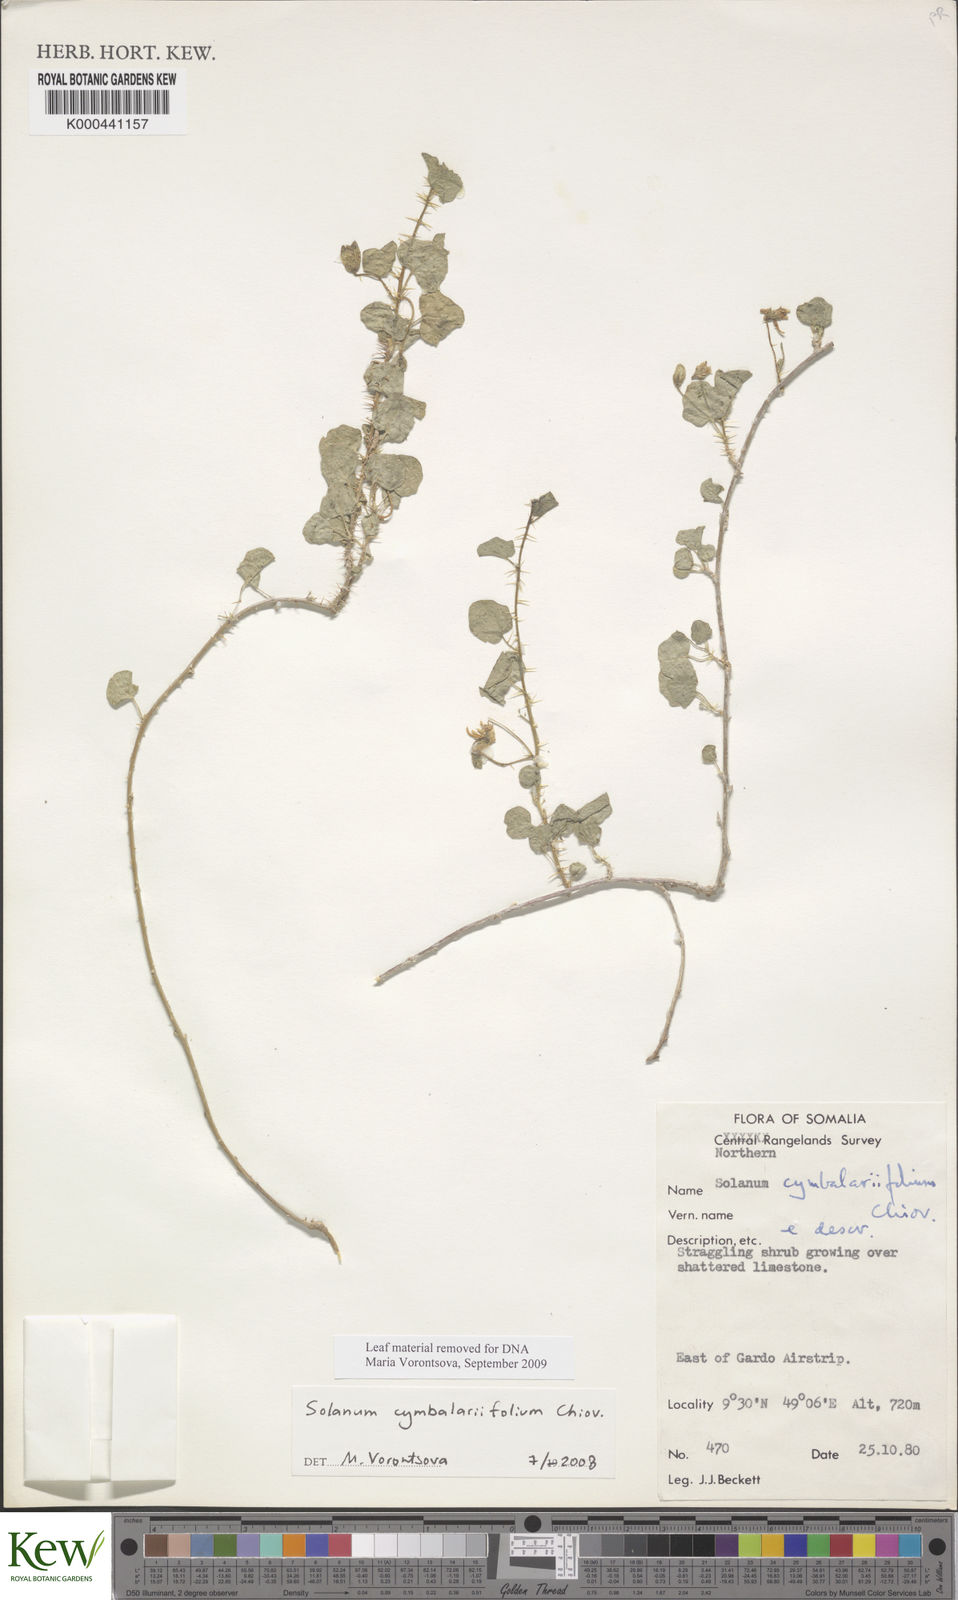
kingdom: Plantae
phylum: Tracheophyta
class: Magnoliopsida
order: Solanales
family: Solanaceae
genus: Solanum
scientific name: Solanum cymbalariifolium
